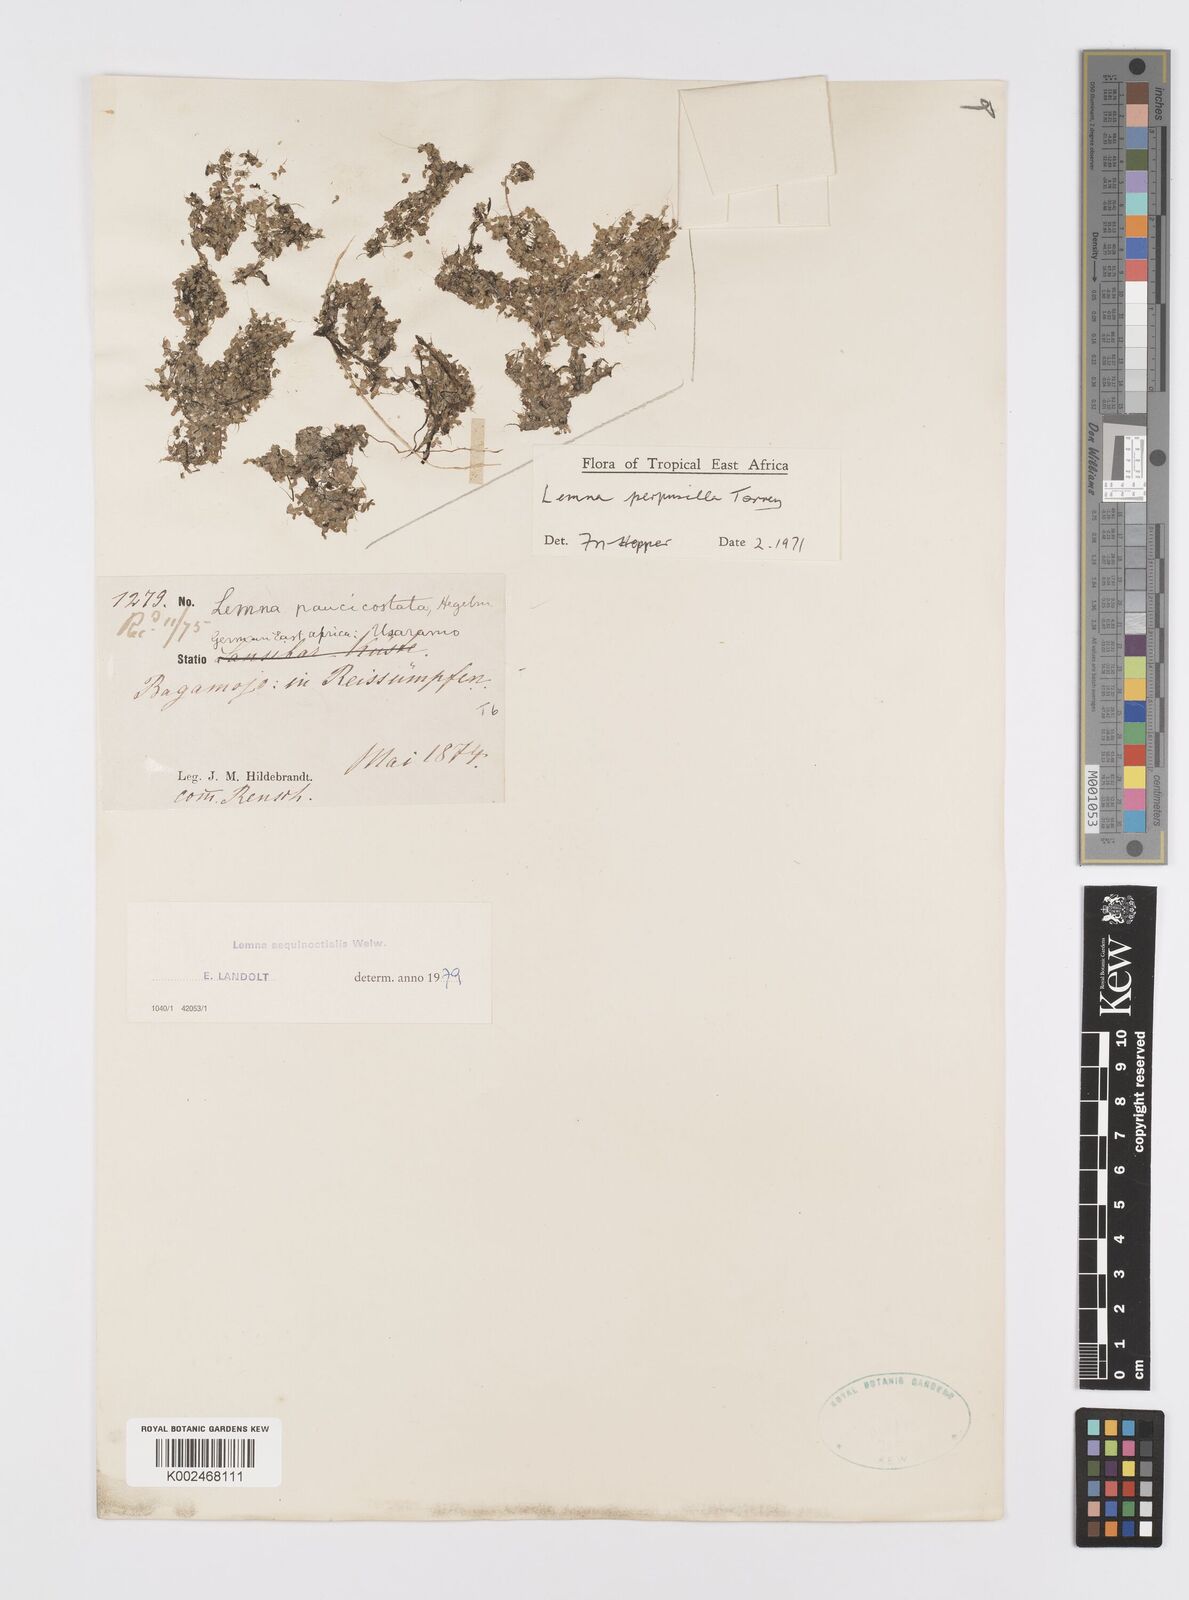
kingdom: Plantae
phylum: Tracheophyta
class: Liliopsida
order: Alismatales
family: Araceae
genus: Lemna
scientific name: Lemna aequinoctialis
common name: Duckweed
